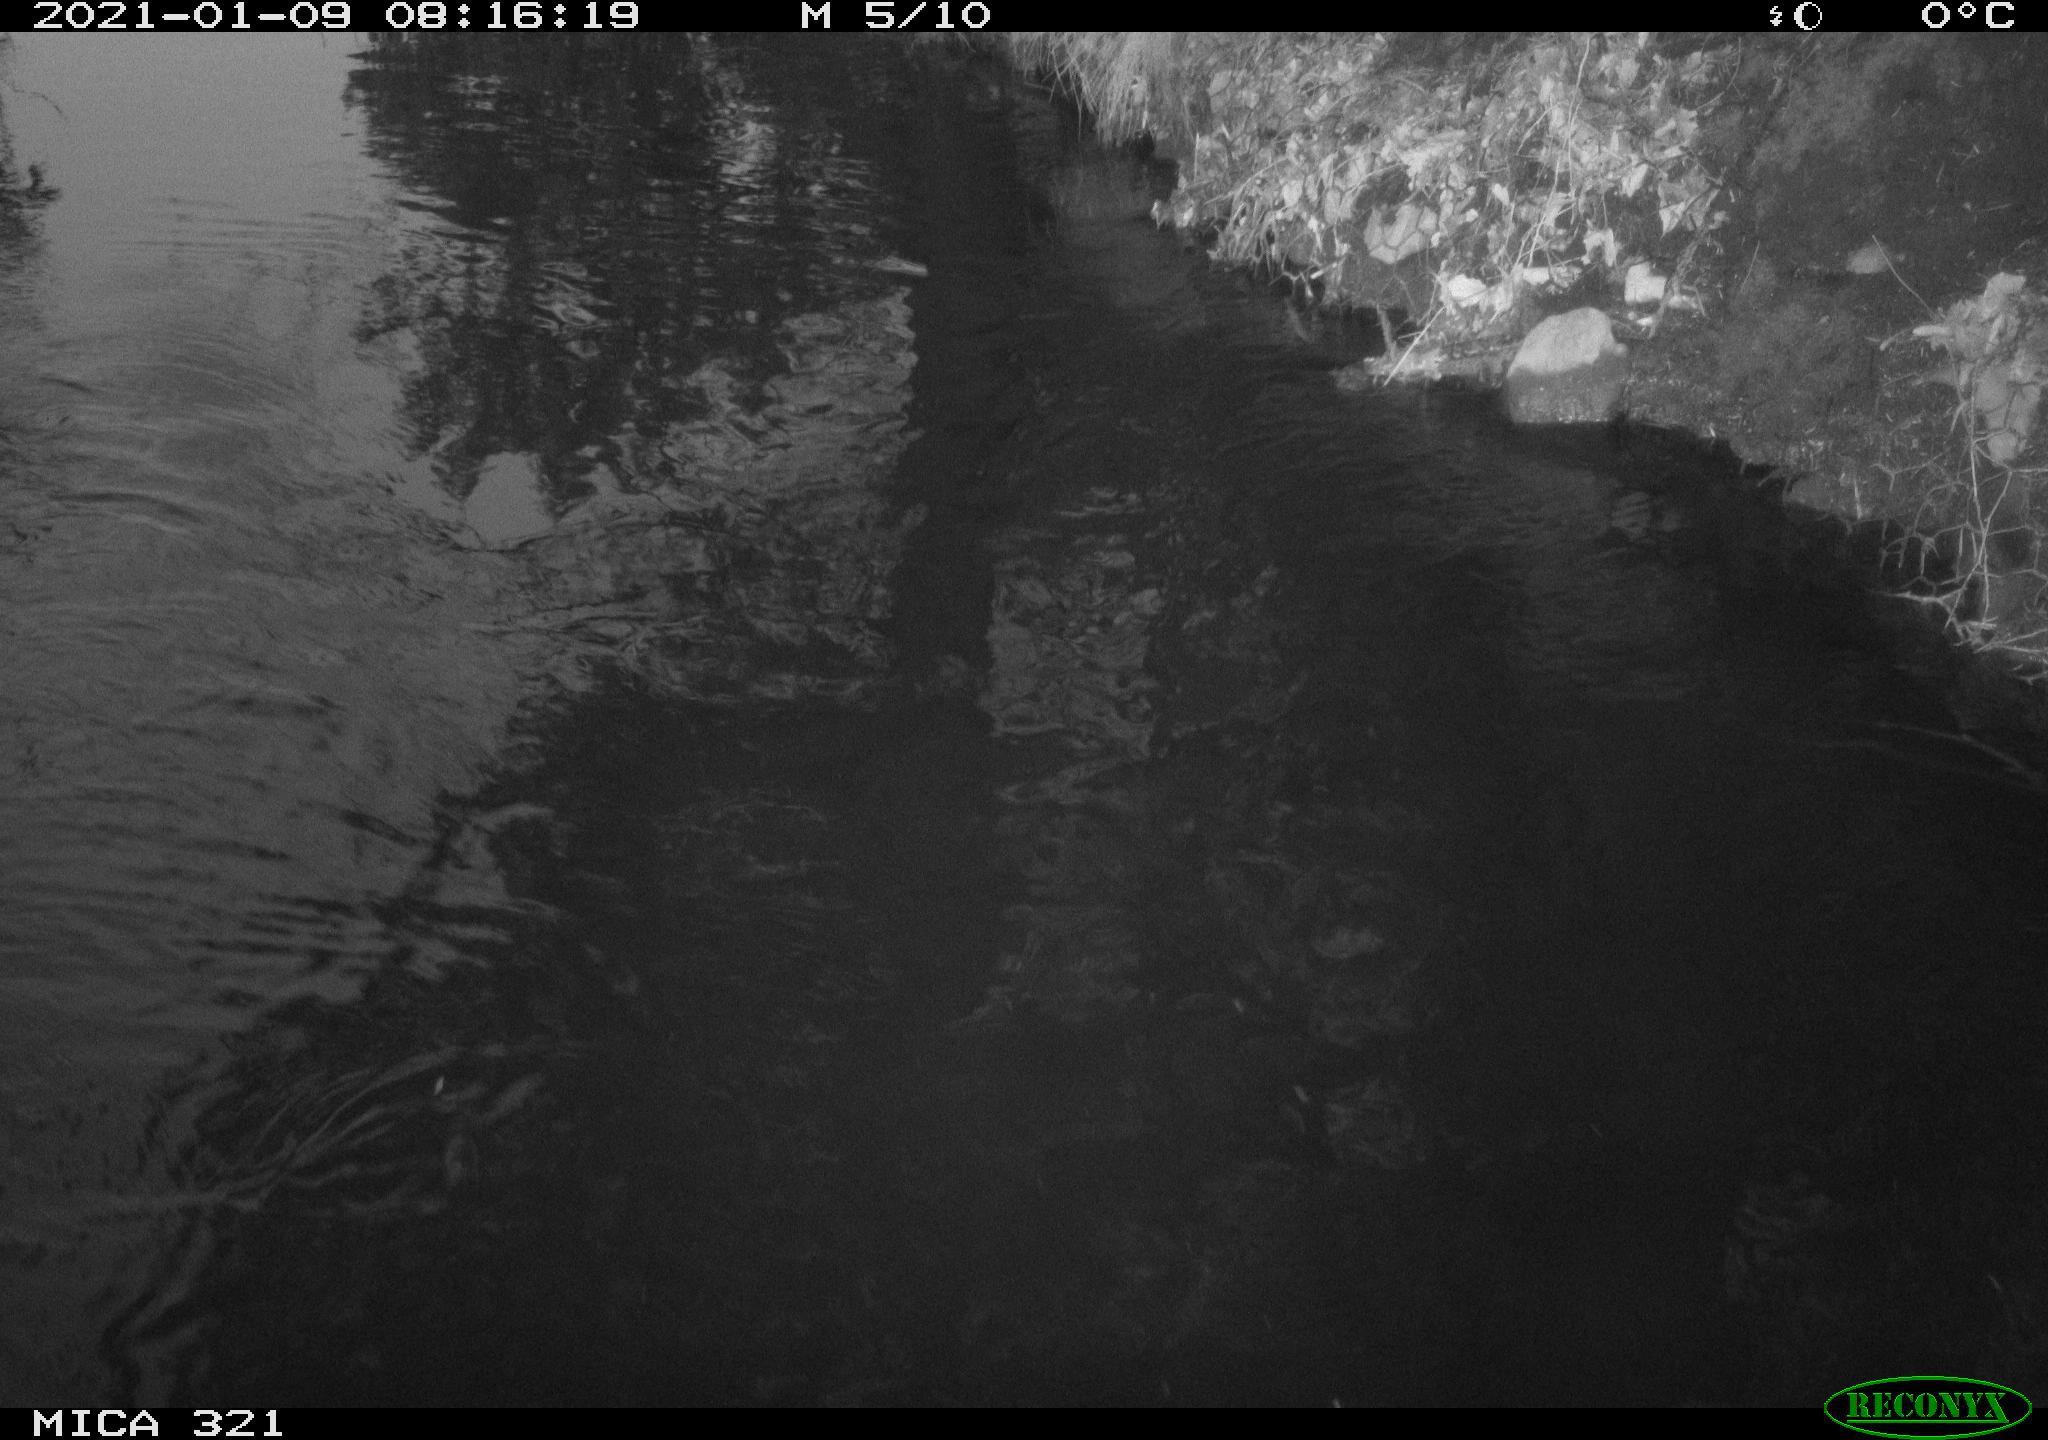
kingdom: Animalia
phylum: Chordata
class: Aves
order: Anseriformes
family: Anatidae
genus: Anas
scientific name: Anas platyrhynchos
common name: Mallard
